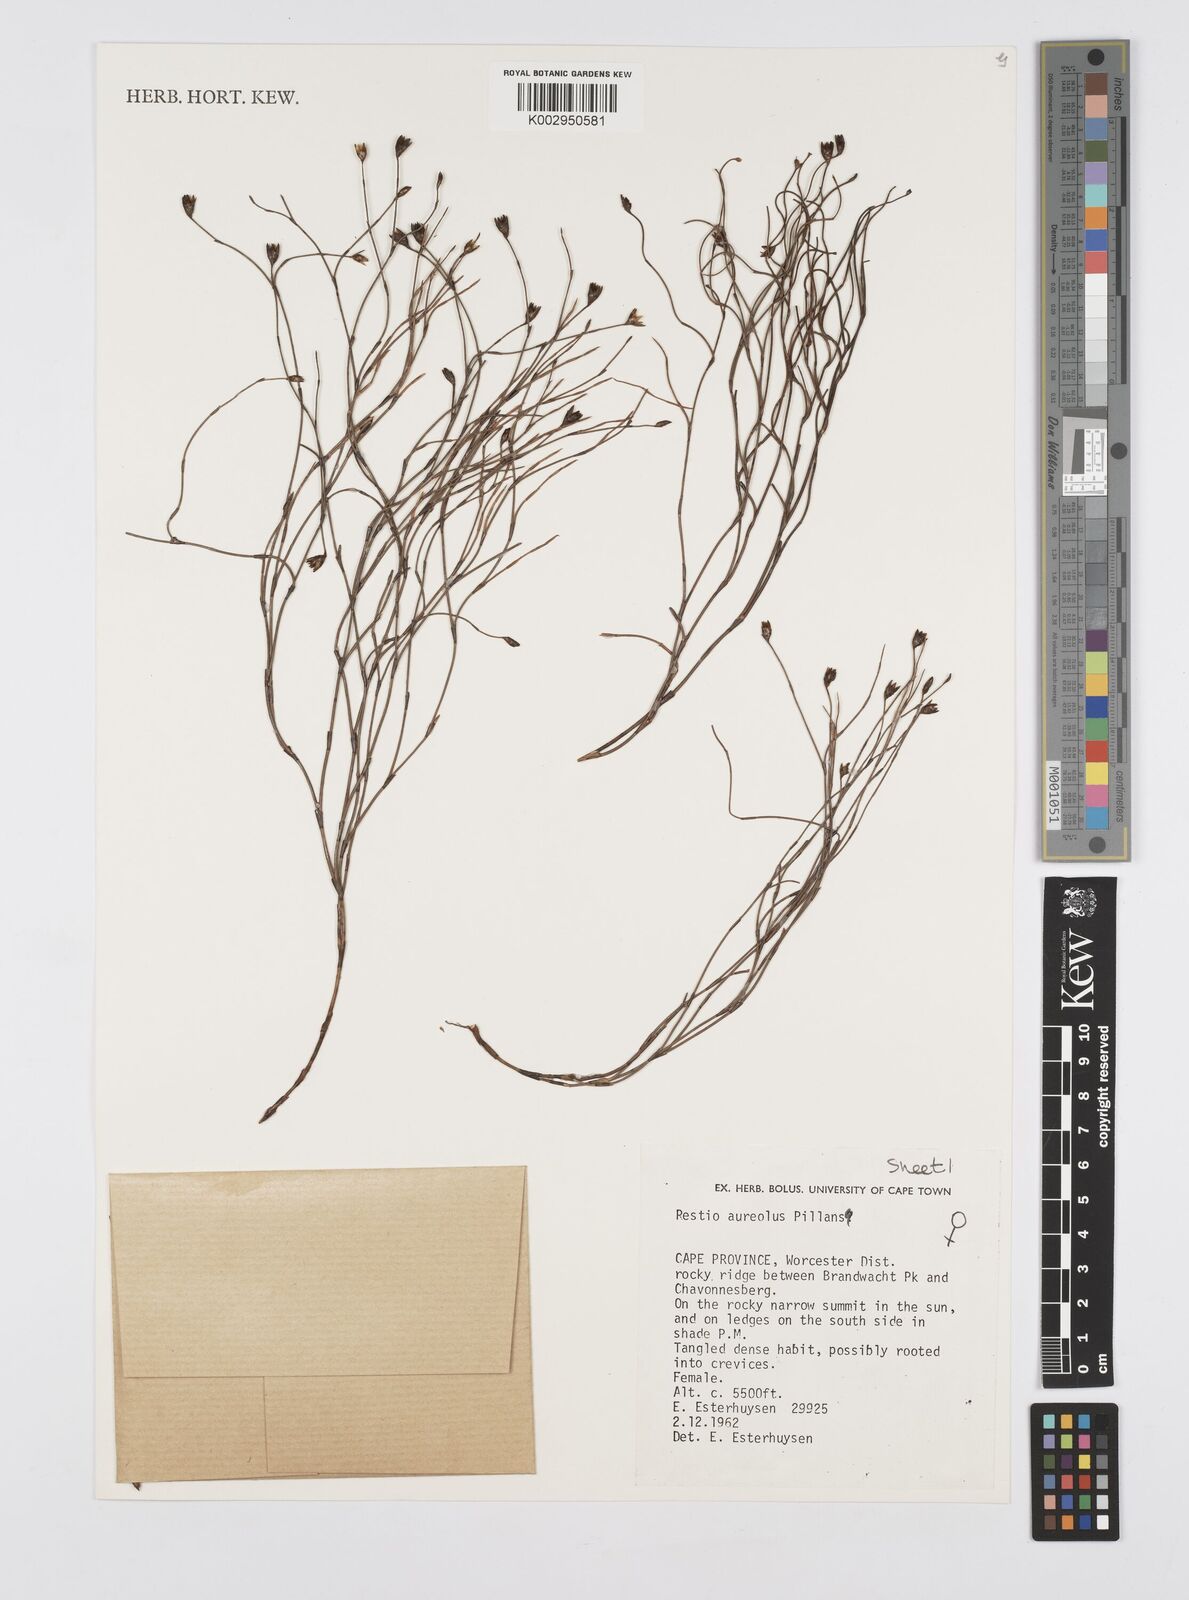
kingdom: Plantae
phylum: Tracheophyta
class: Liliopsida
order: Poales
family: Restionaceae
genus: Restio
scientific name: Restio aureolus
